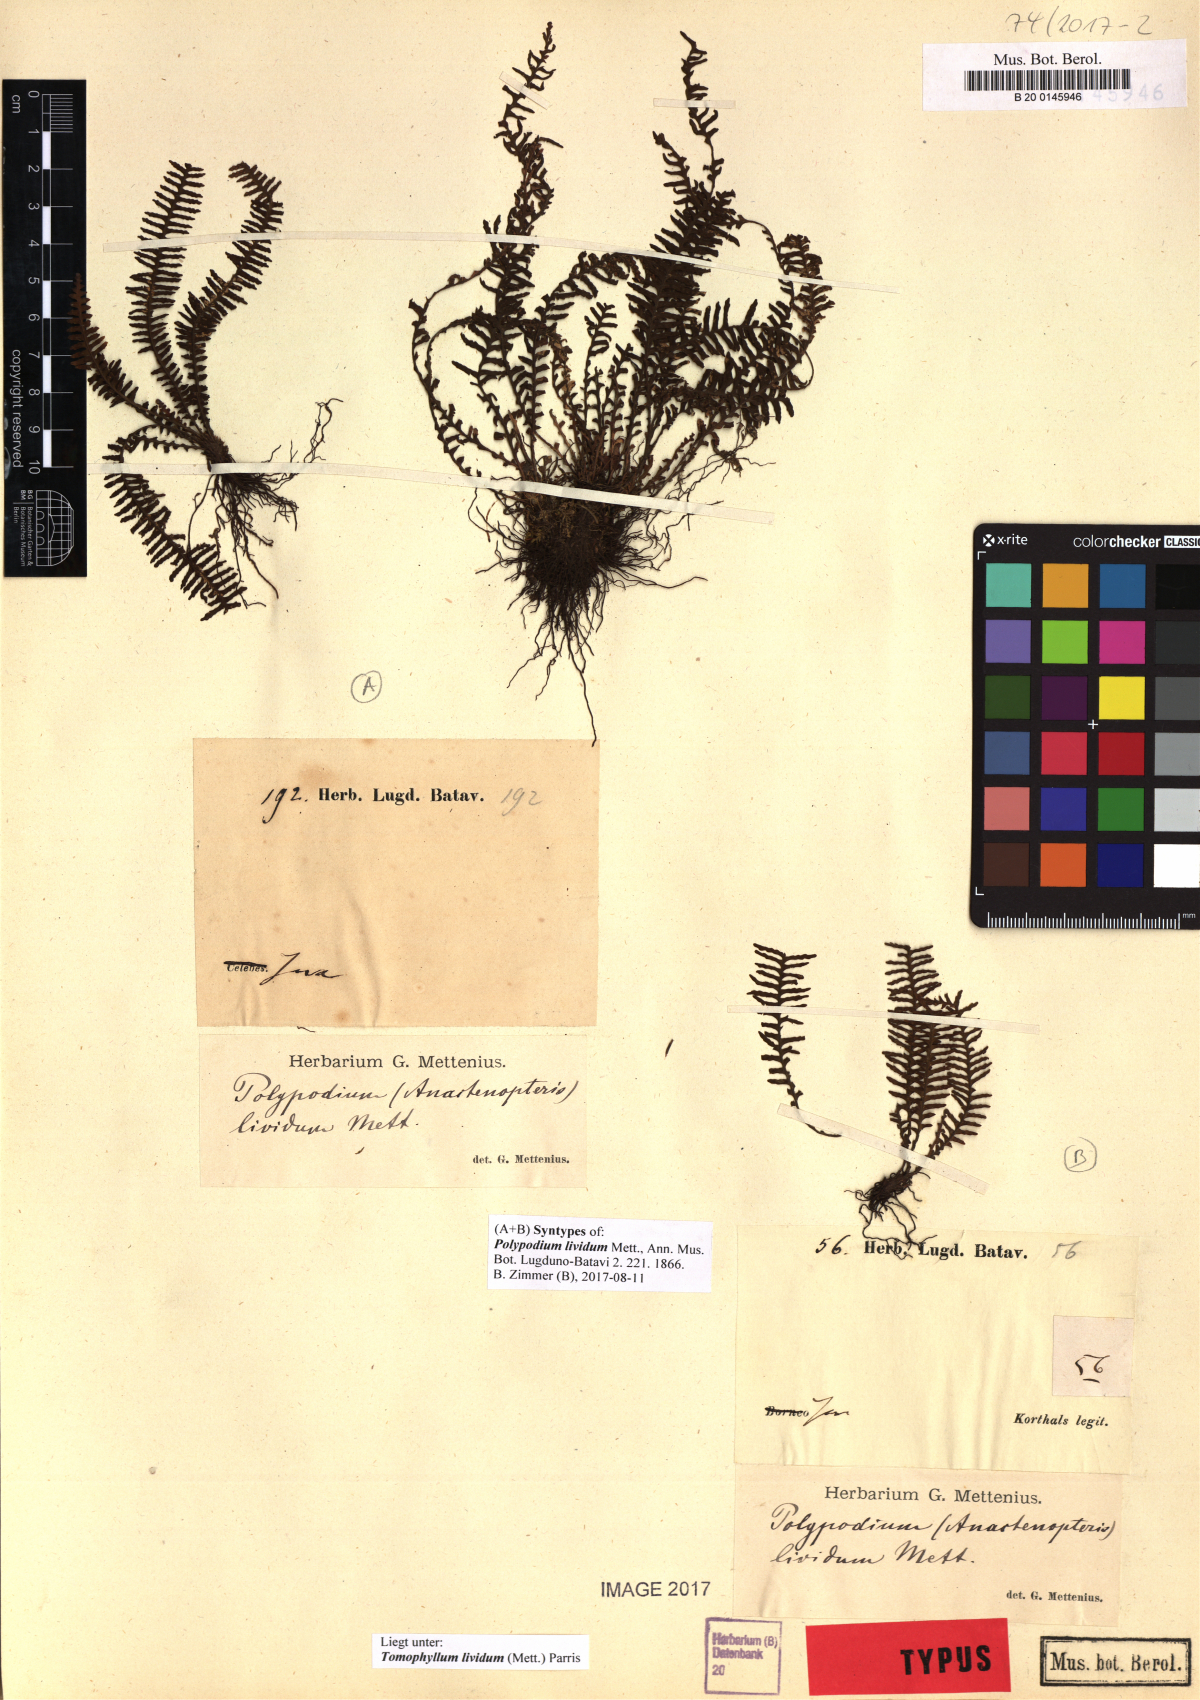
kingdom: Plantae
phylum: Tracheophyta
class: Polypodiopsida
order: Polypodiales
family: Polypodiaceae
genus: Tomophyllum
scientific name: Tomophyllum lividum
